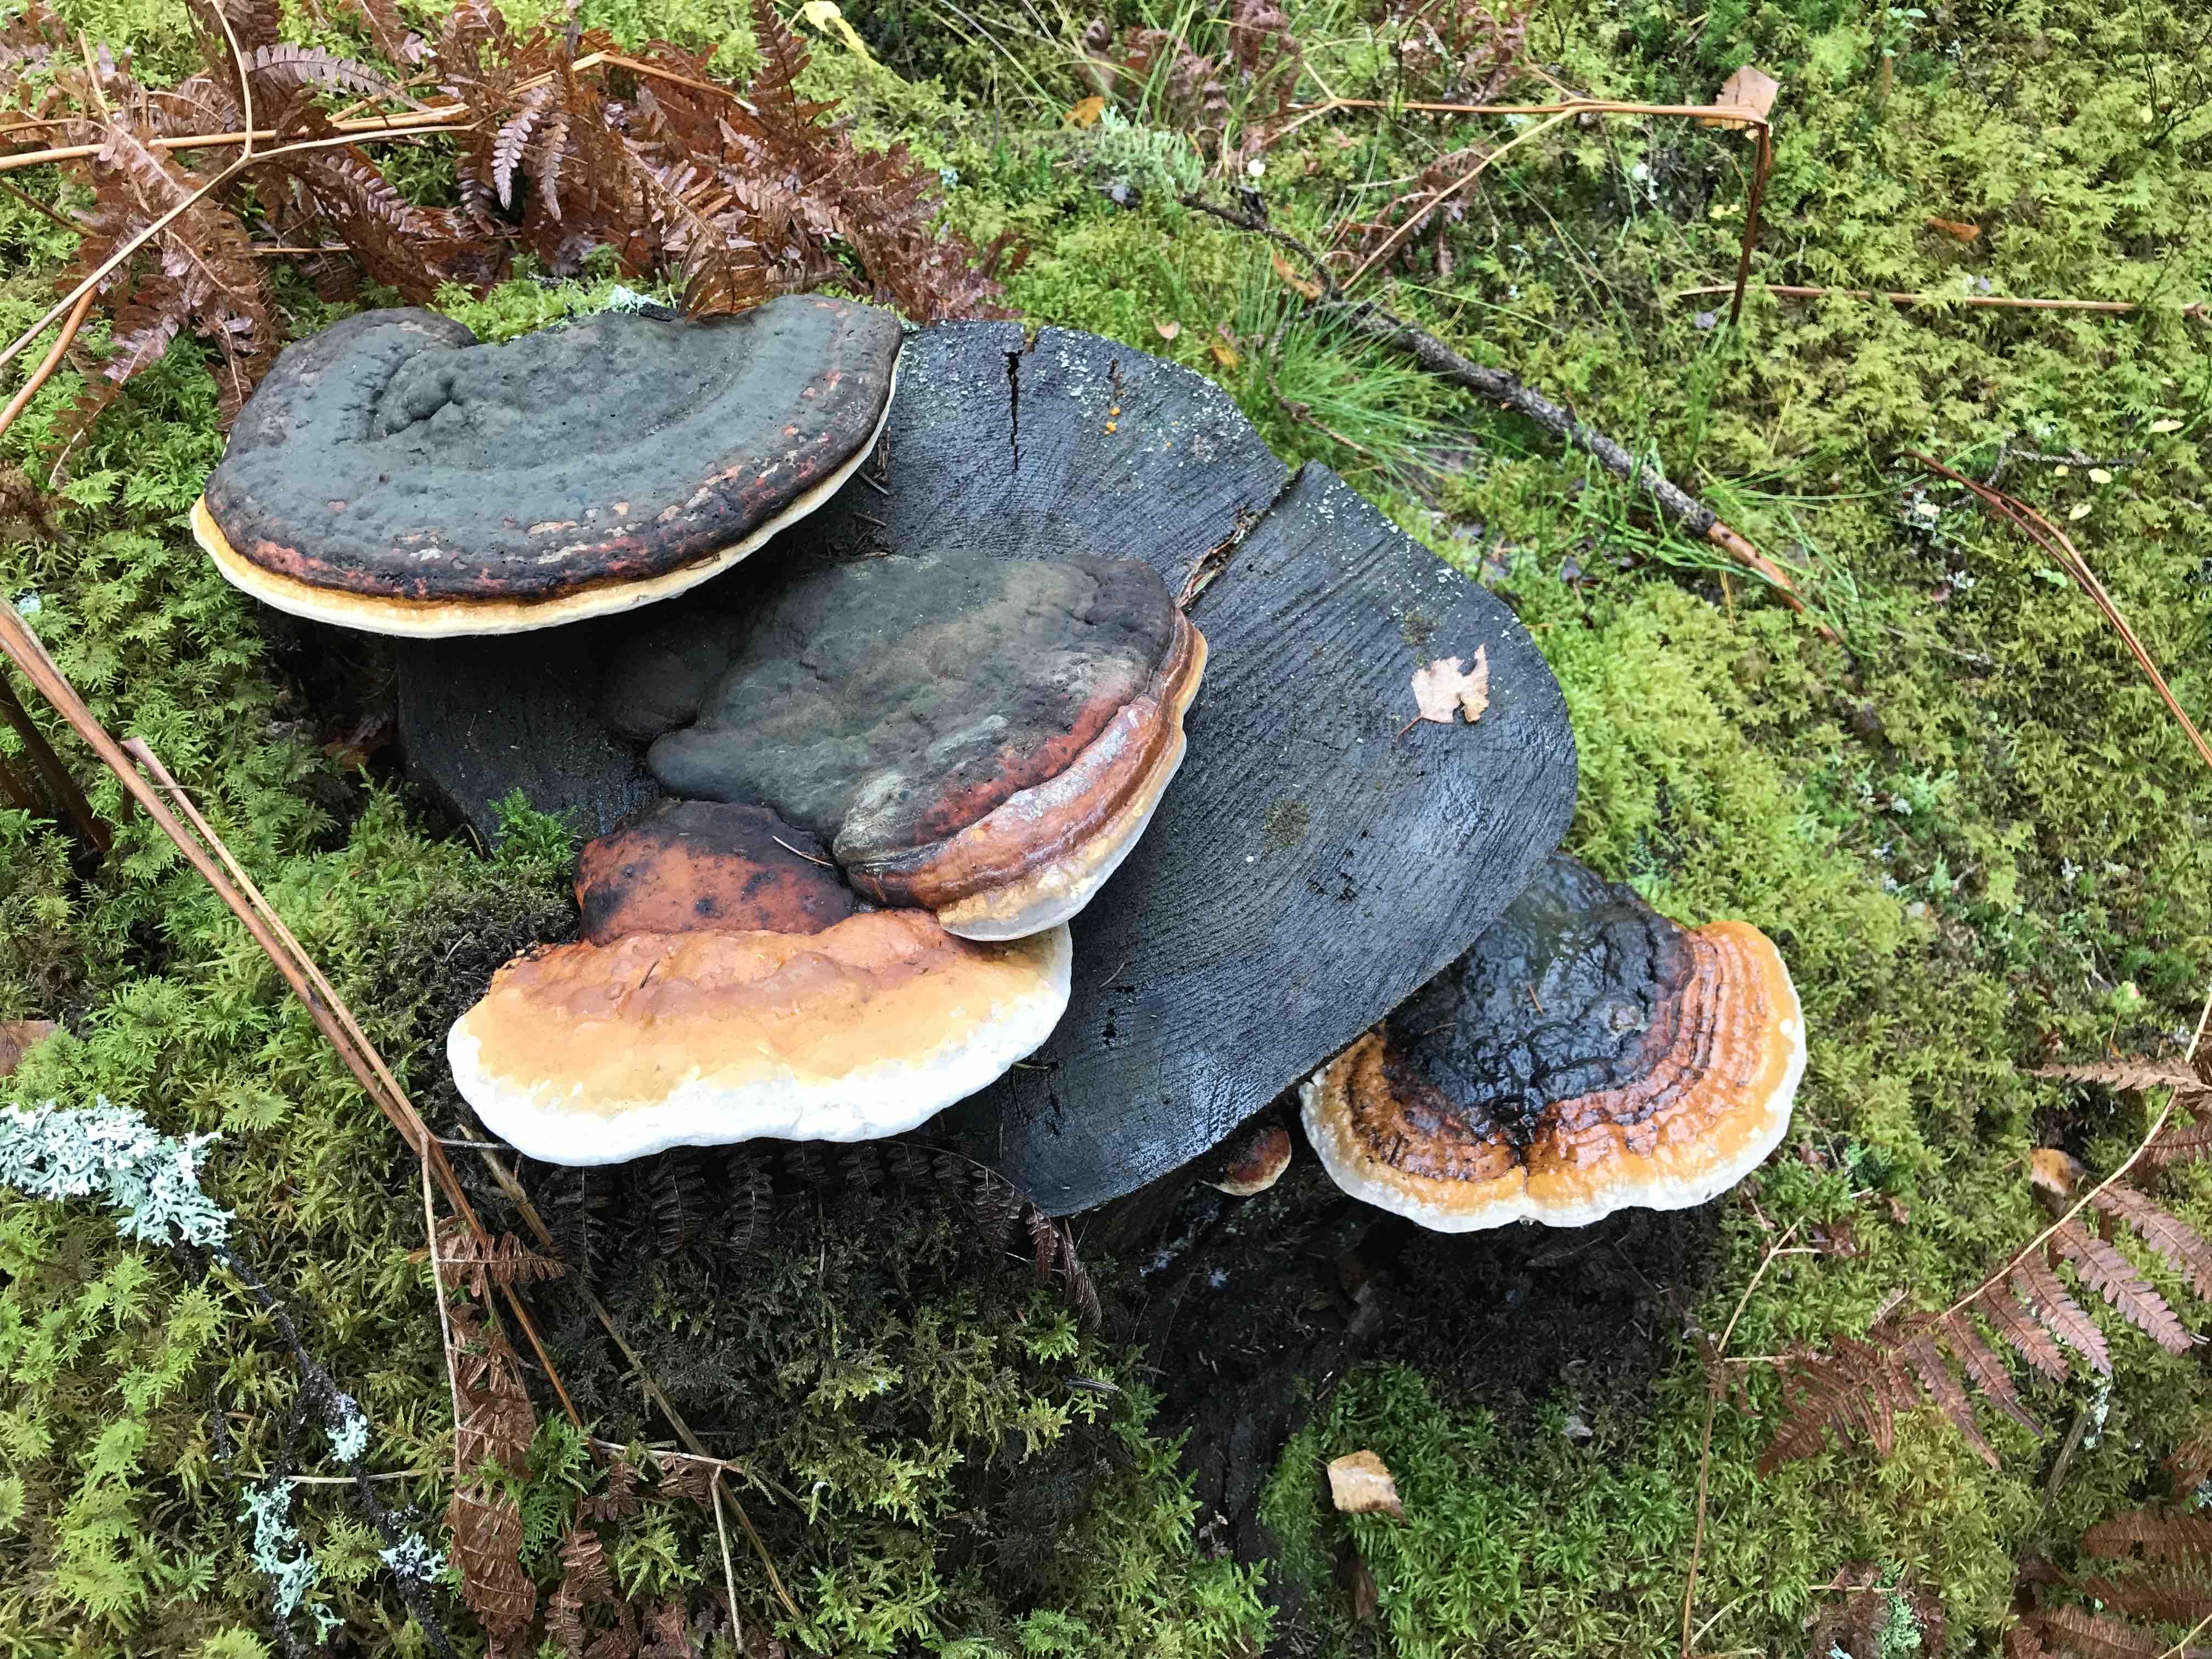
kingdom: Fungi
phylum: Basidiomycota
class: Agaricomycetes
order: Polyporales
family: Fomitopsidaceae
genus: Fomitopsis
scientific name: Fomitopsis pinicola
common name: randbæltet hovporesvamp
